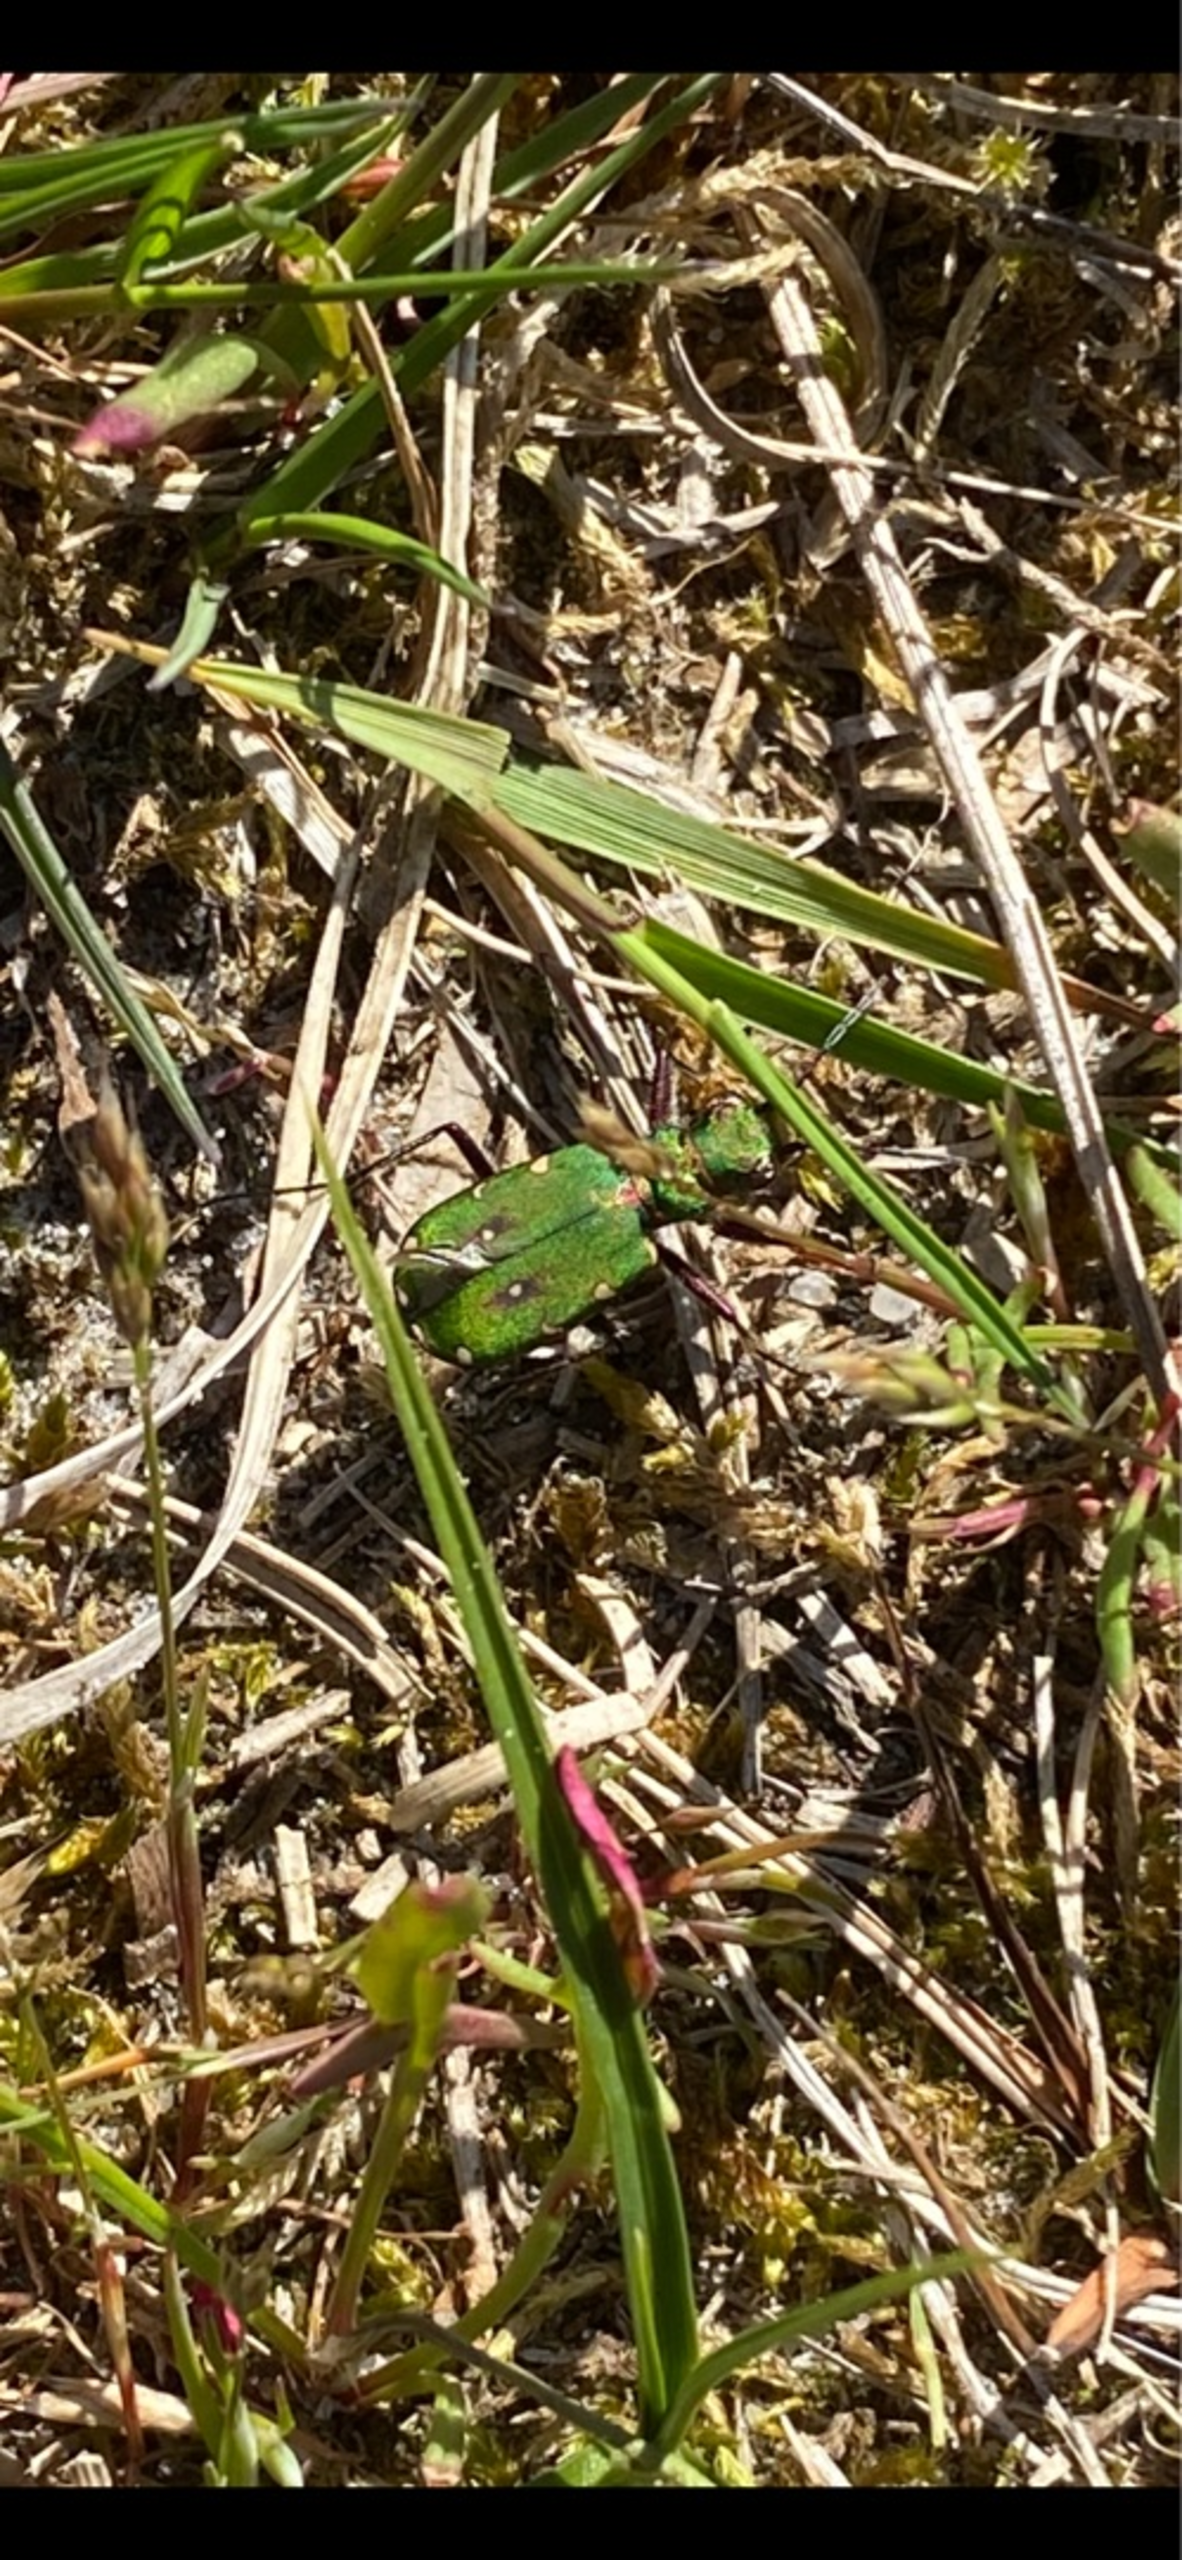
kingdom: Animalia
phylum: Arthropoda
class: Insecta
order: Coleoptera
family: Carabidae
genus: Cicindela
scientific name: Cicindela campestris
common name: Grøn sandspringer
